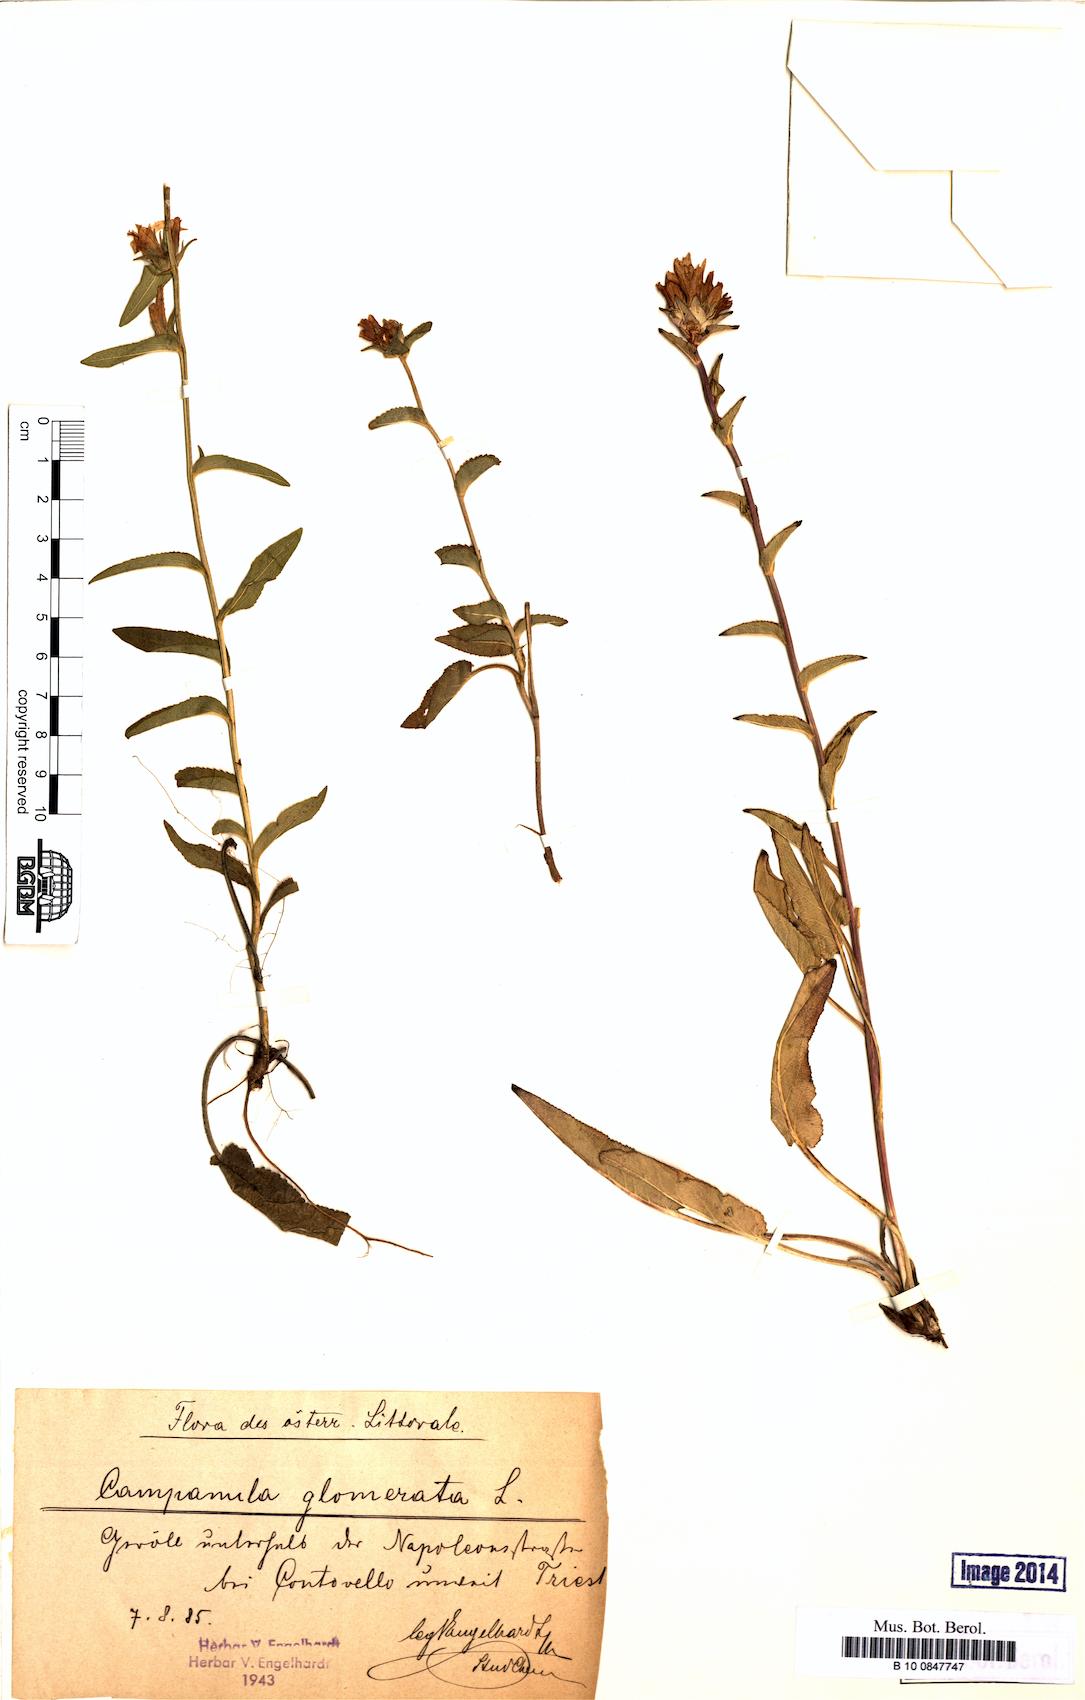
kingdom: Plantae
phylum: Tracheophyta
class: Magnoliopsida
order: Asterales
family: Campanulaceae
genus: Campanula
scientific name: Campanula glomerata
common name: Clustered bellflower
